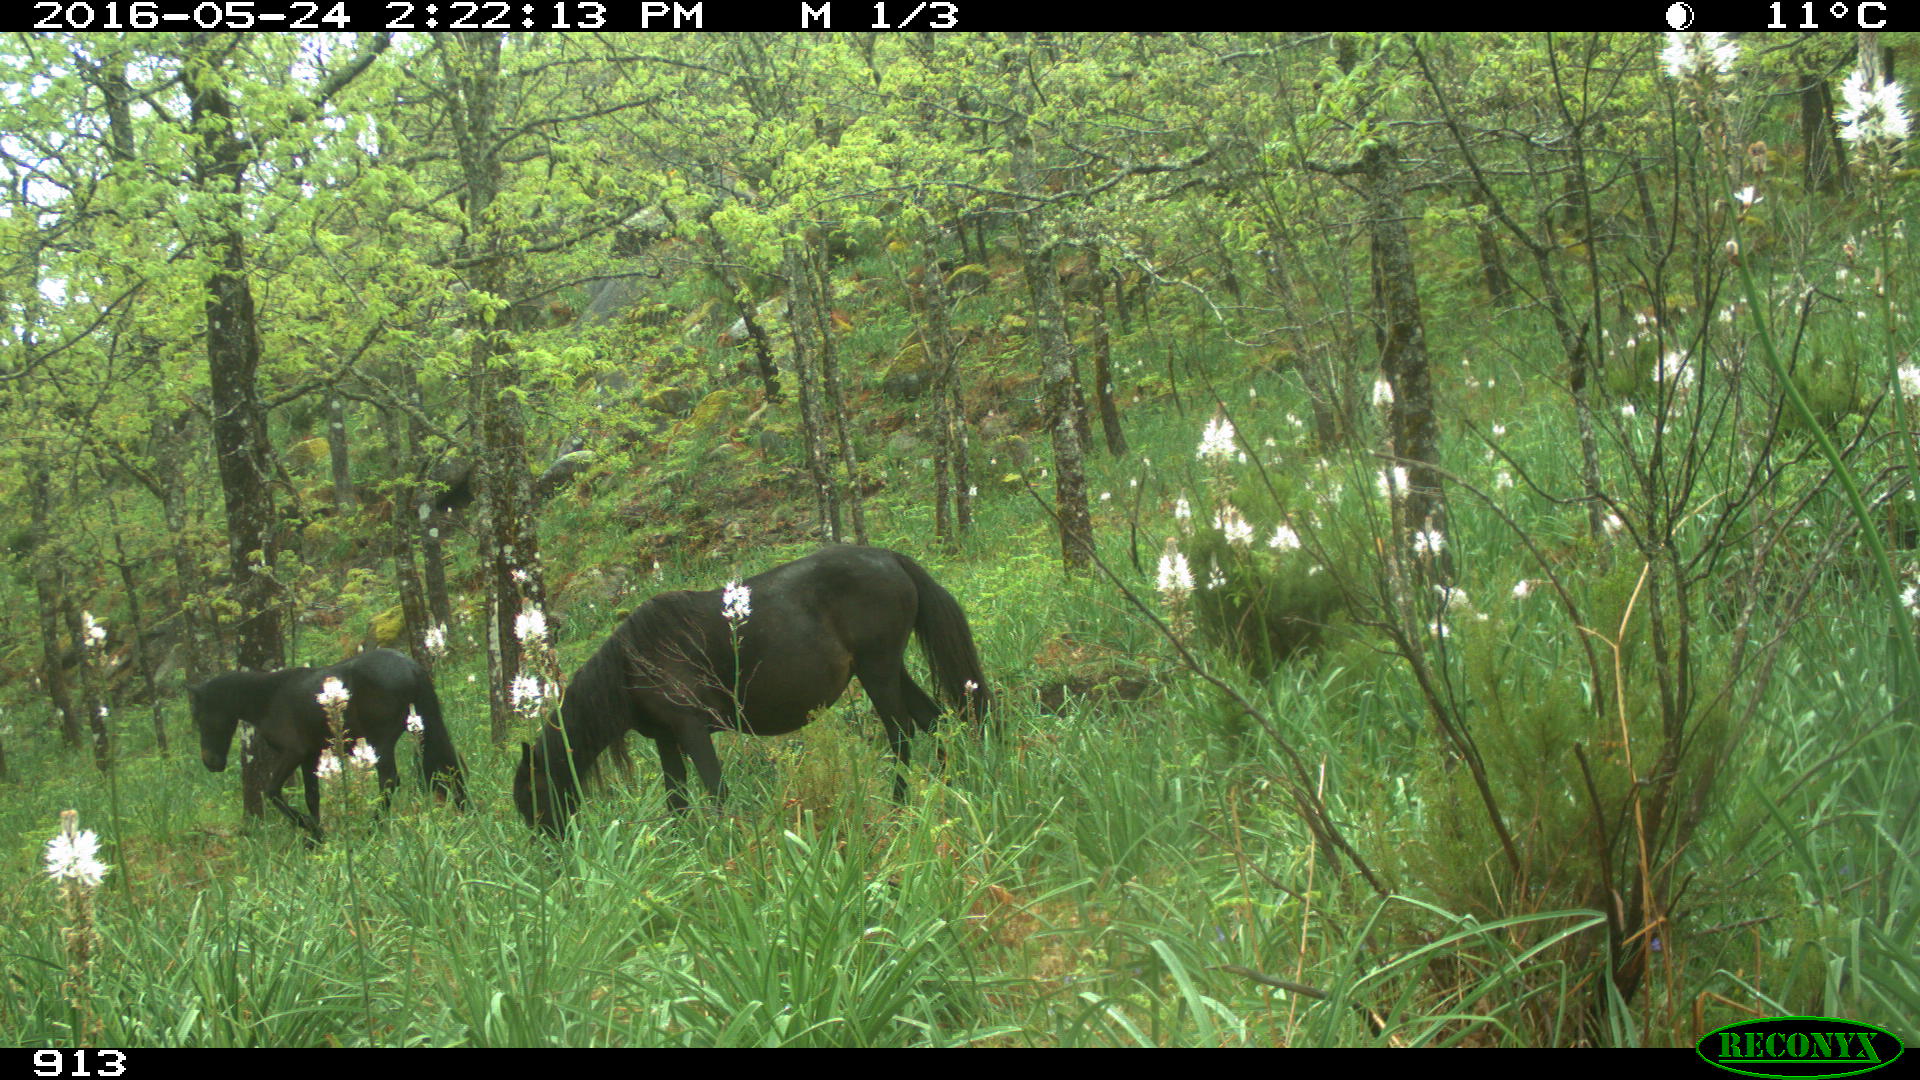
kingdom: Animalia
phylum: Chordata
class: Mammalia
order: Perissodactyla
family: Equidae
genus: Equus
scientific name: Equus caballus
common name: Horse
